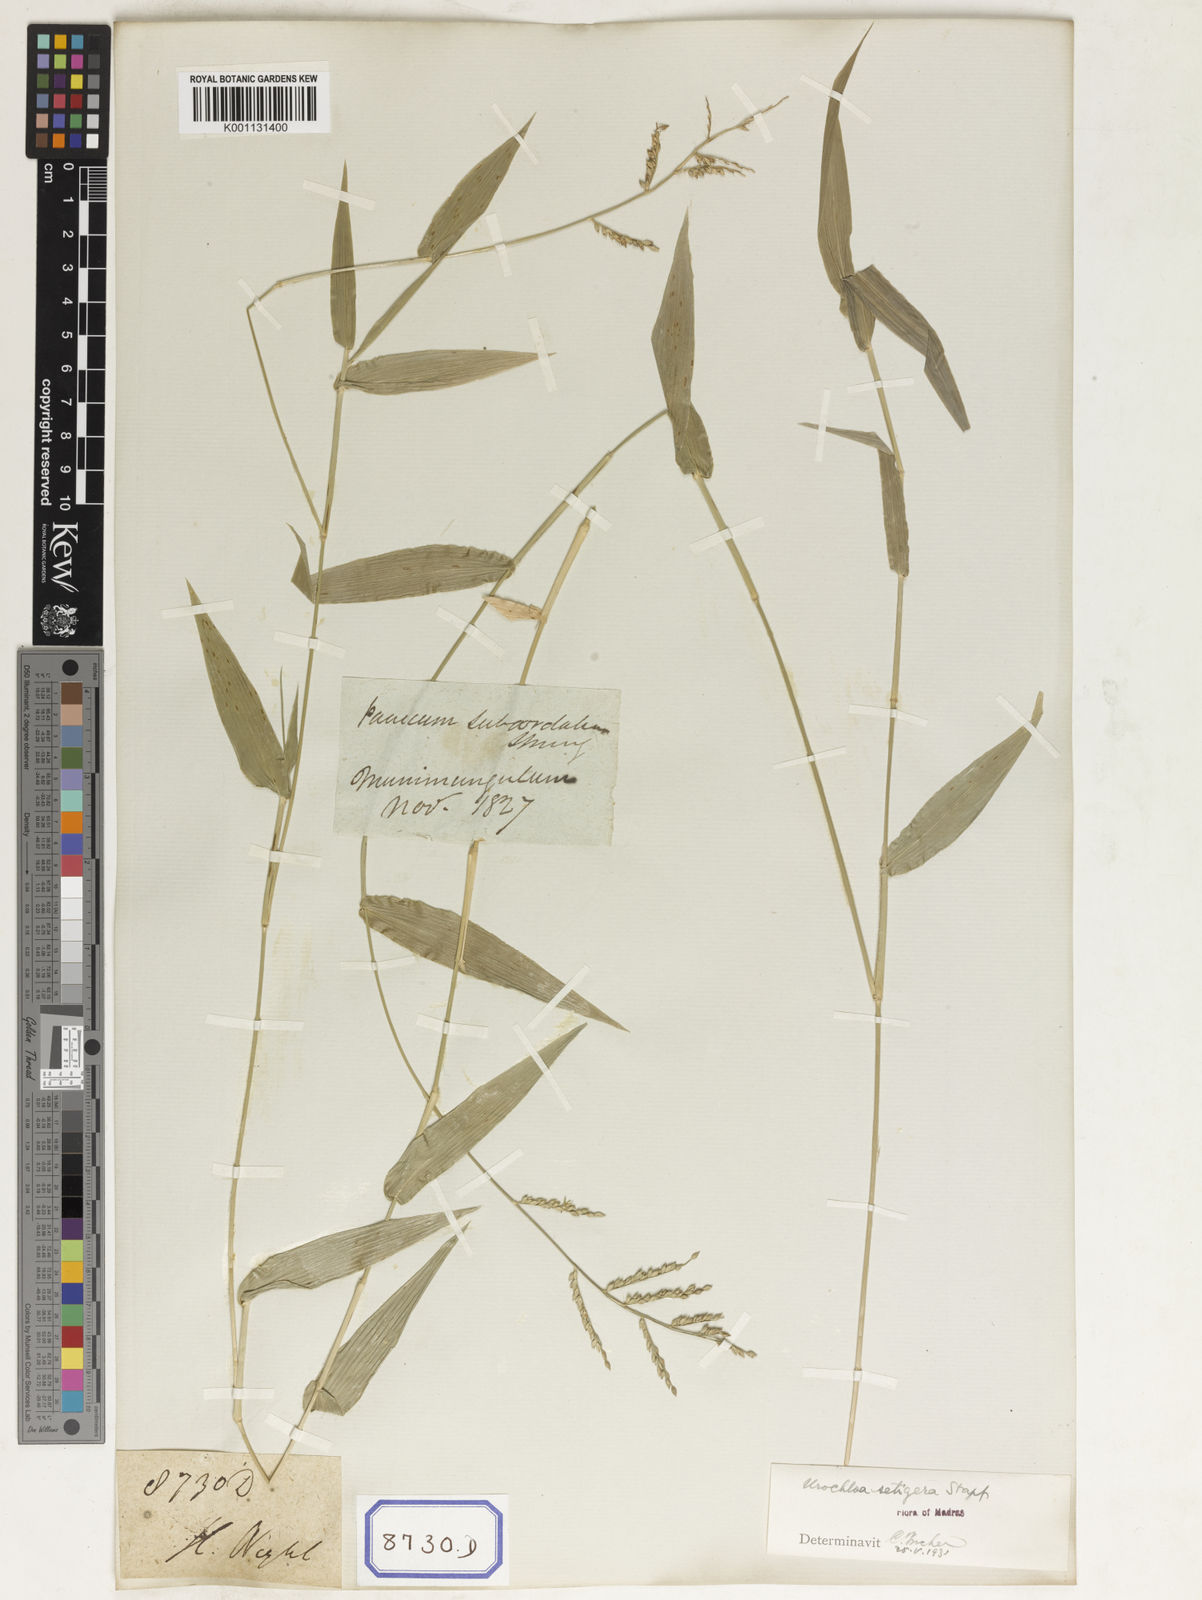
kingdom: Plantae
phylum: Tracheophyta
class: Liliopsida
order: Poales
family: Poaceae
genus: Panicum
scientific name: Panicum
